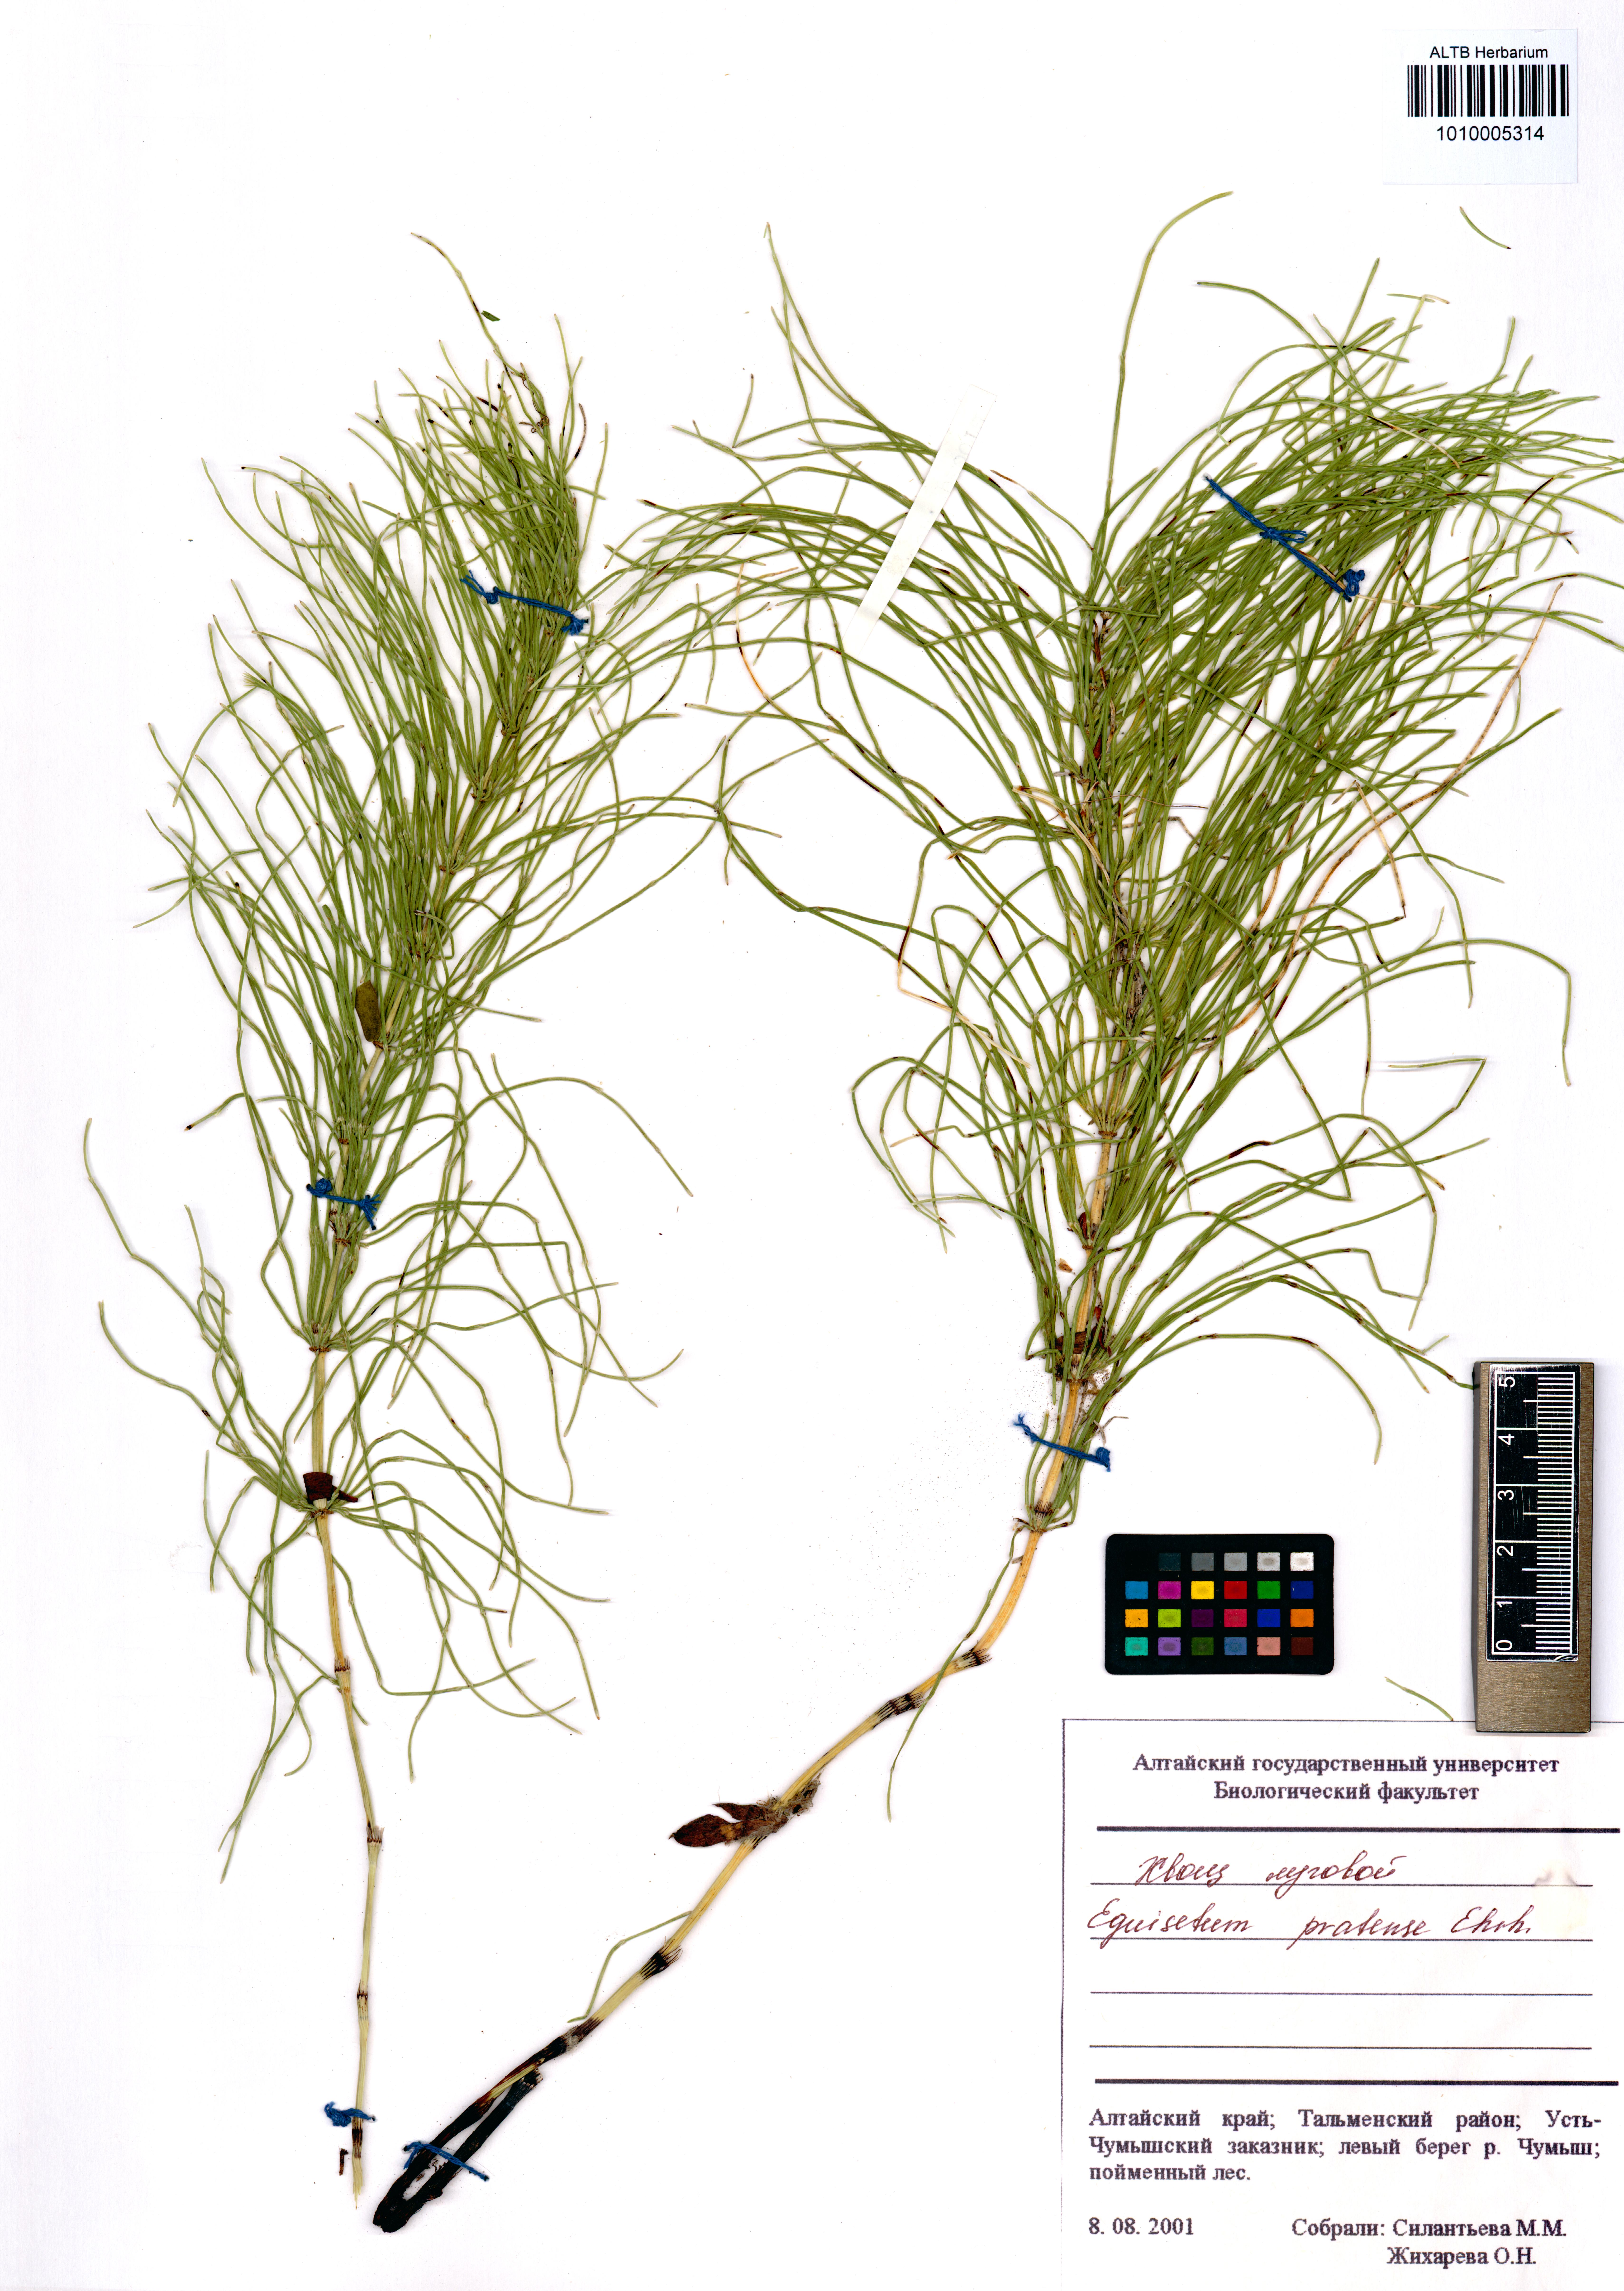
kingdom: Plantae
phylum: Tracheophyta
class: Polypodiopsida
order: Equisetales
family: Equisetaceae
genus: Equisetum
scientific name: Equisetum pratense
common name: Meadow horsetail
